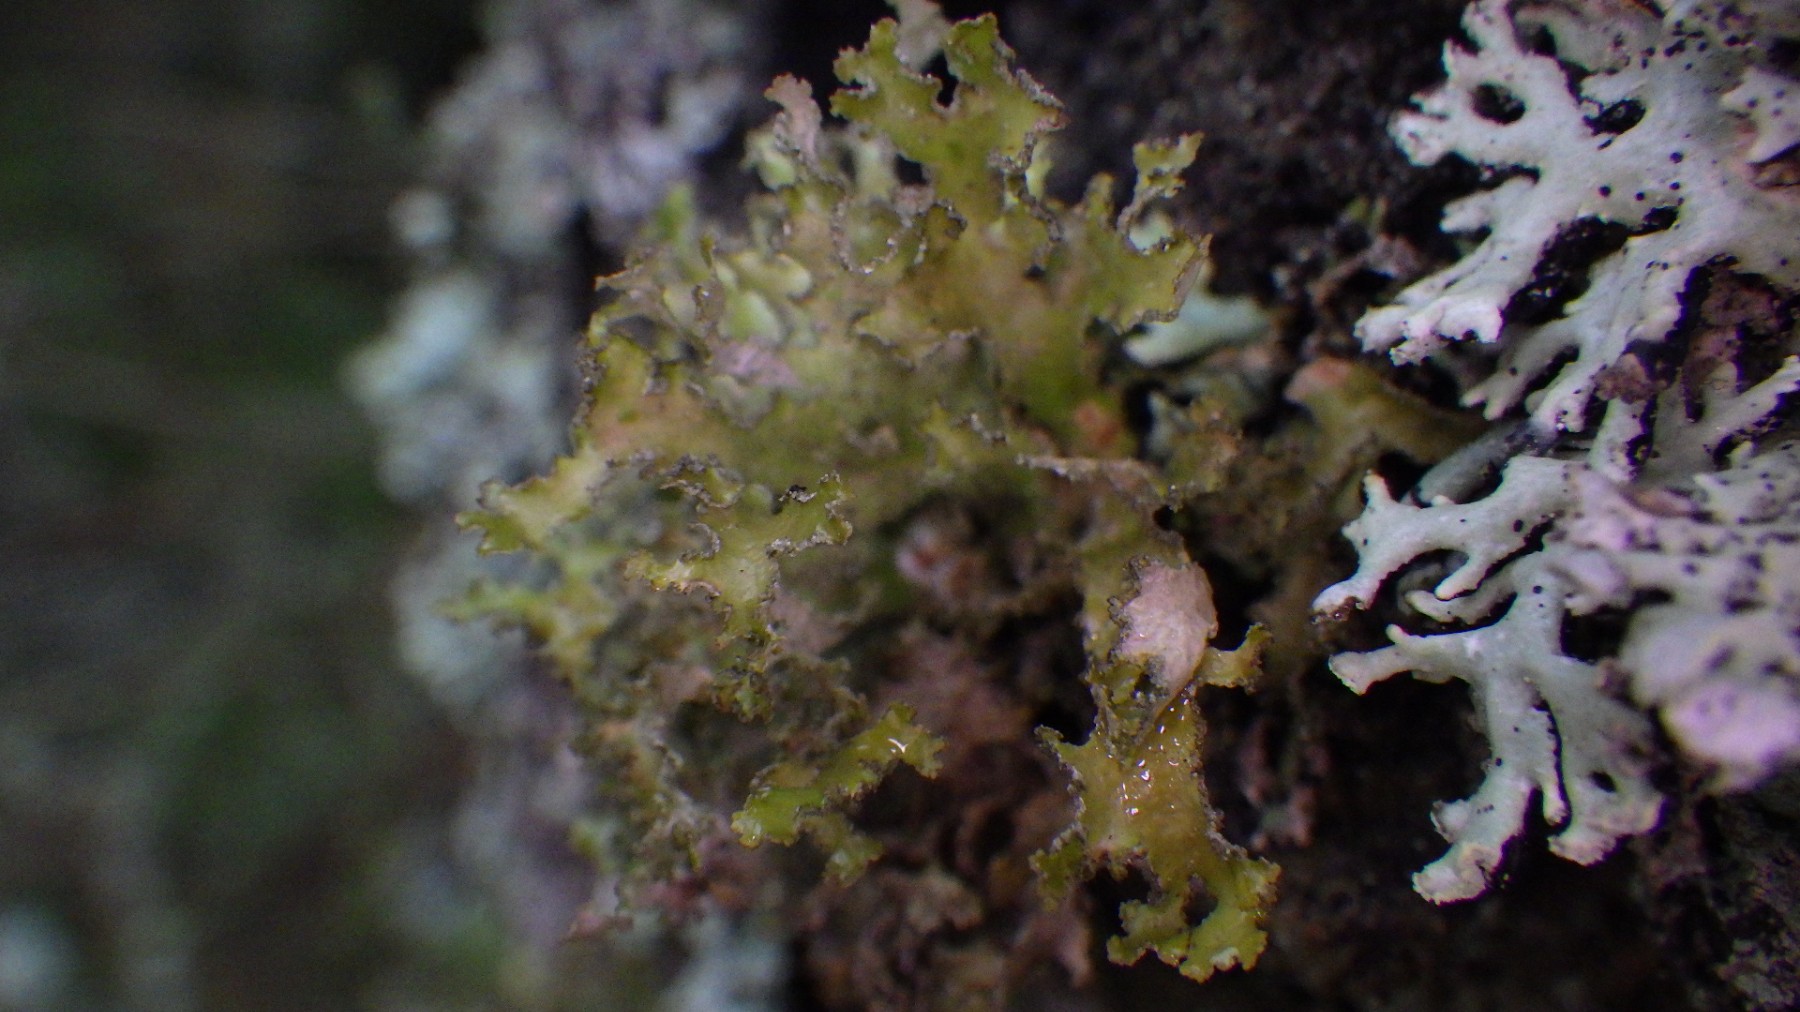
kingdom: Fungi
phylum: Ascomycota
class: Lecanoromycetes
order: Lecanorales
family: Parmeliaceae
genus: Nephromopsis
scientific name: Nephromopsis chlorophylla
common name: olivenbrun kruslav
